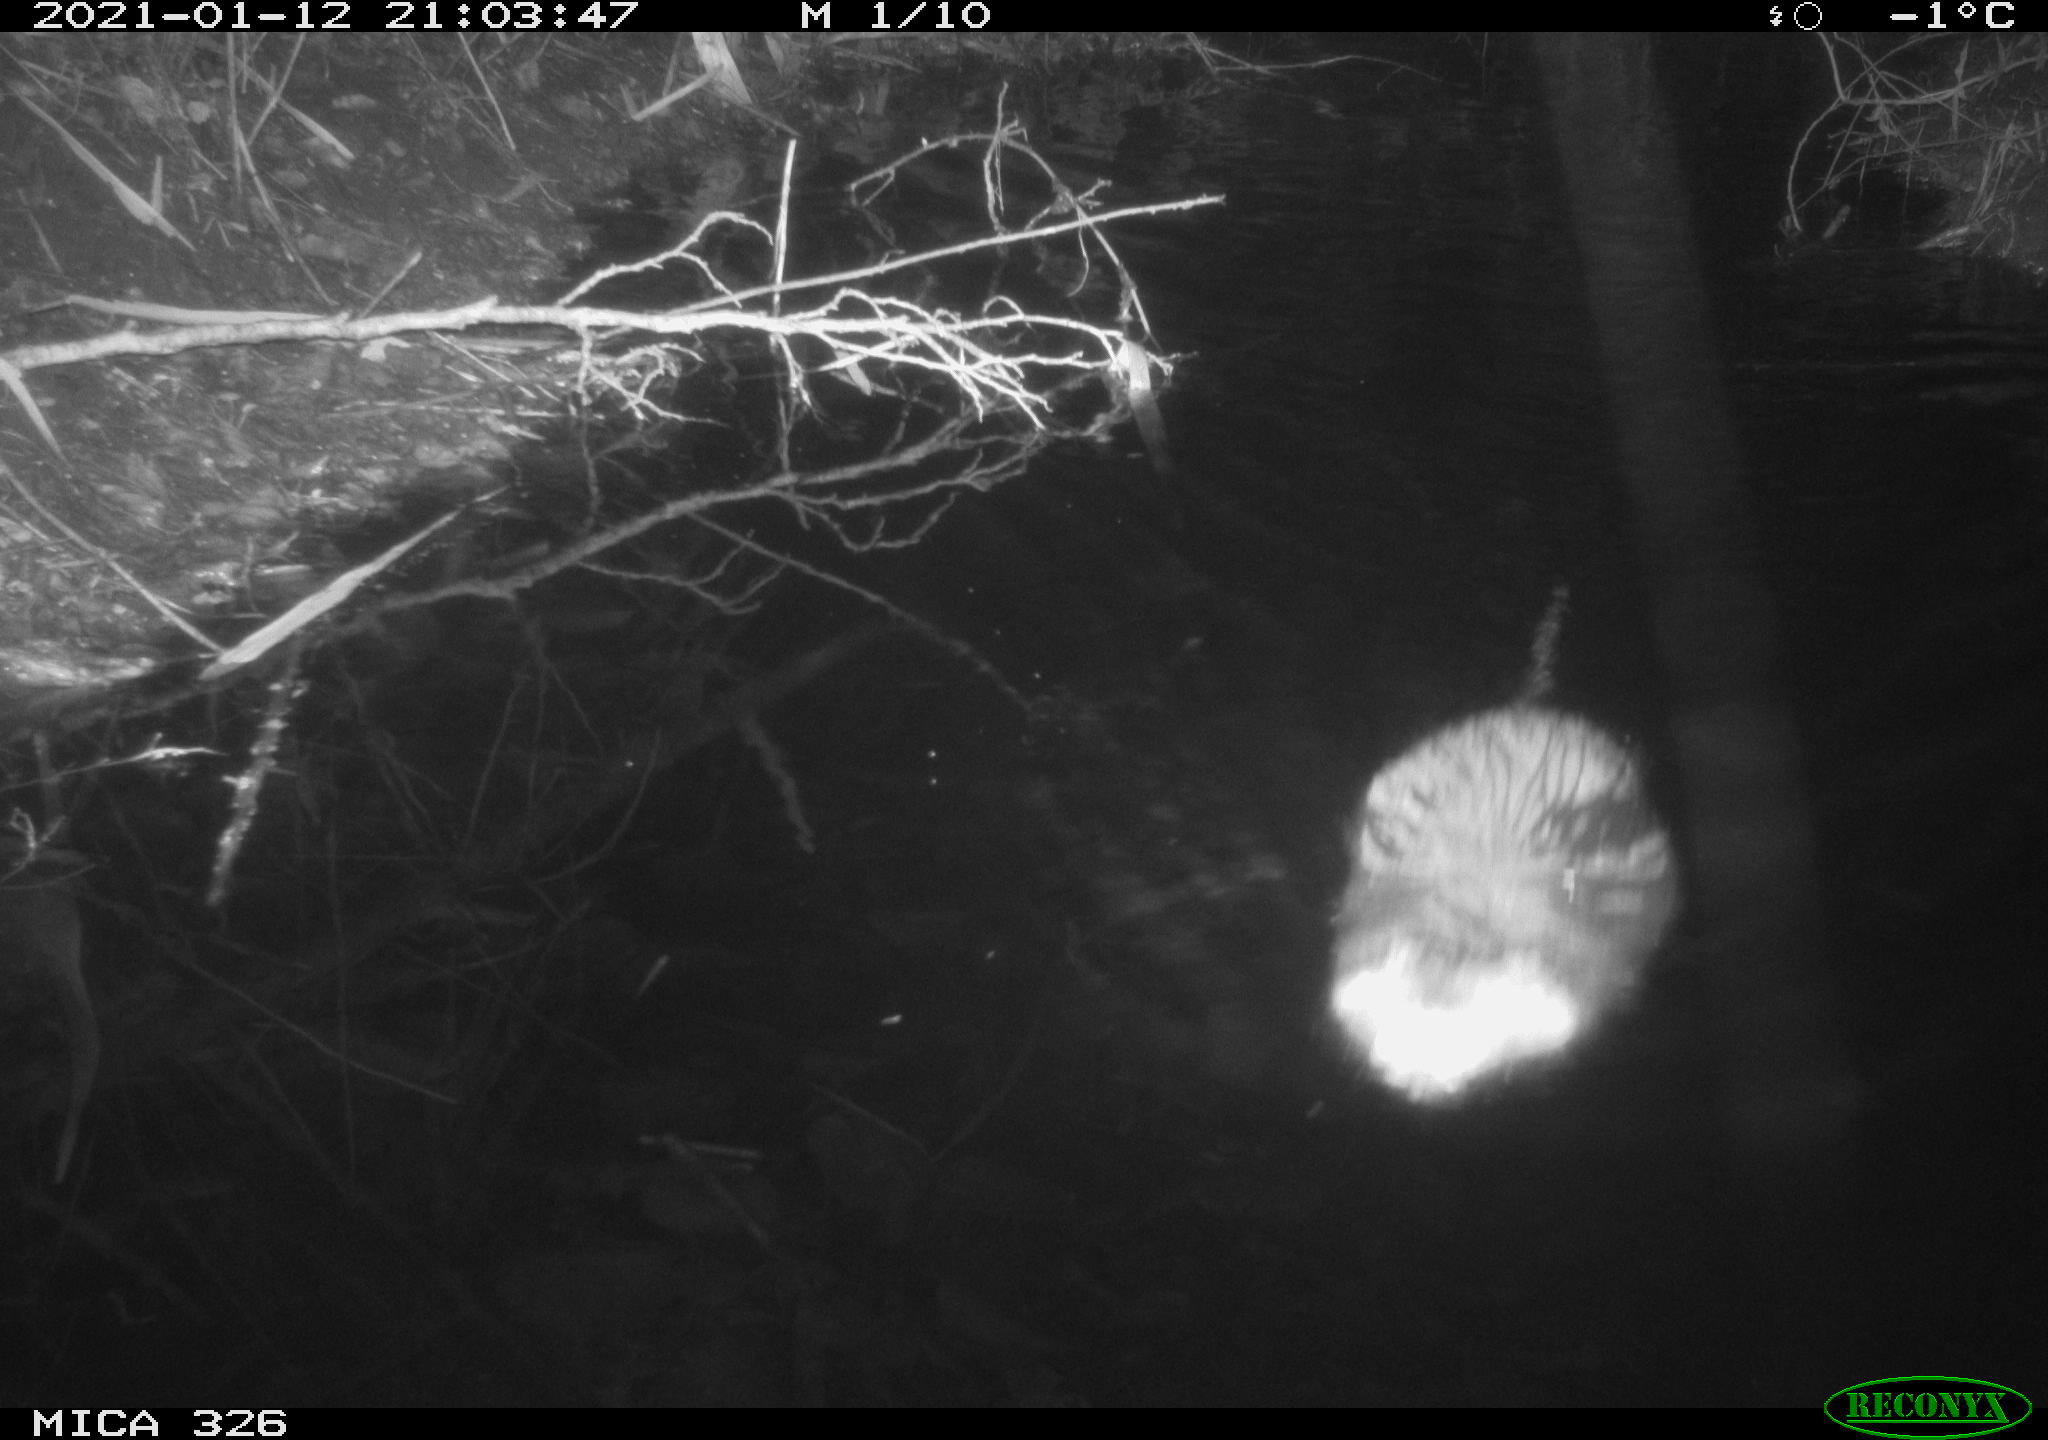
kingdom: Animalia
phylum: Chordata
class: Mammalia
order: Rodentia
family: Myocastoridae
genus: Myocastor
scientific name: Myocastor coypus
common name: Coypu
